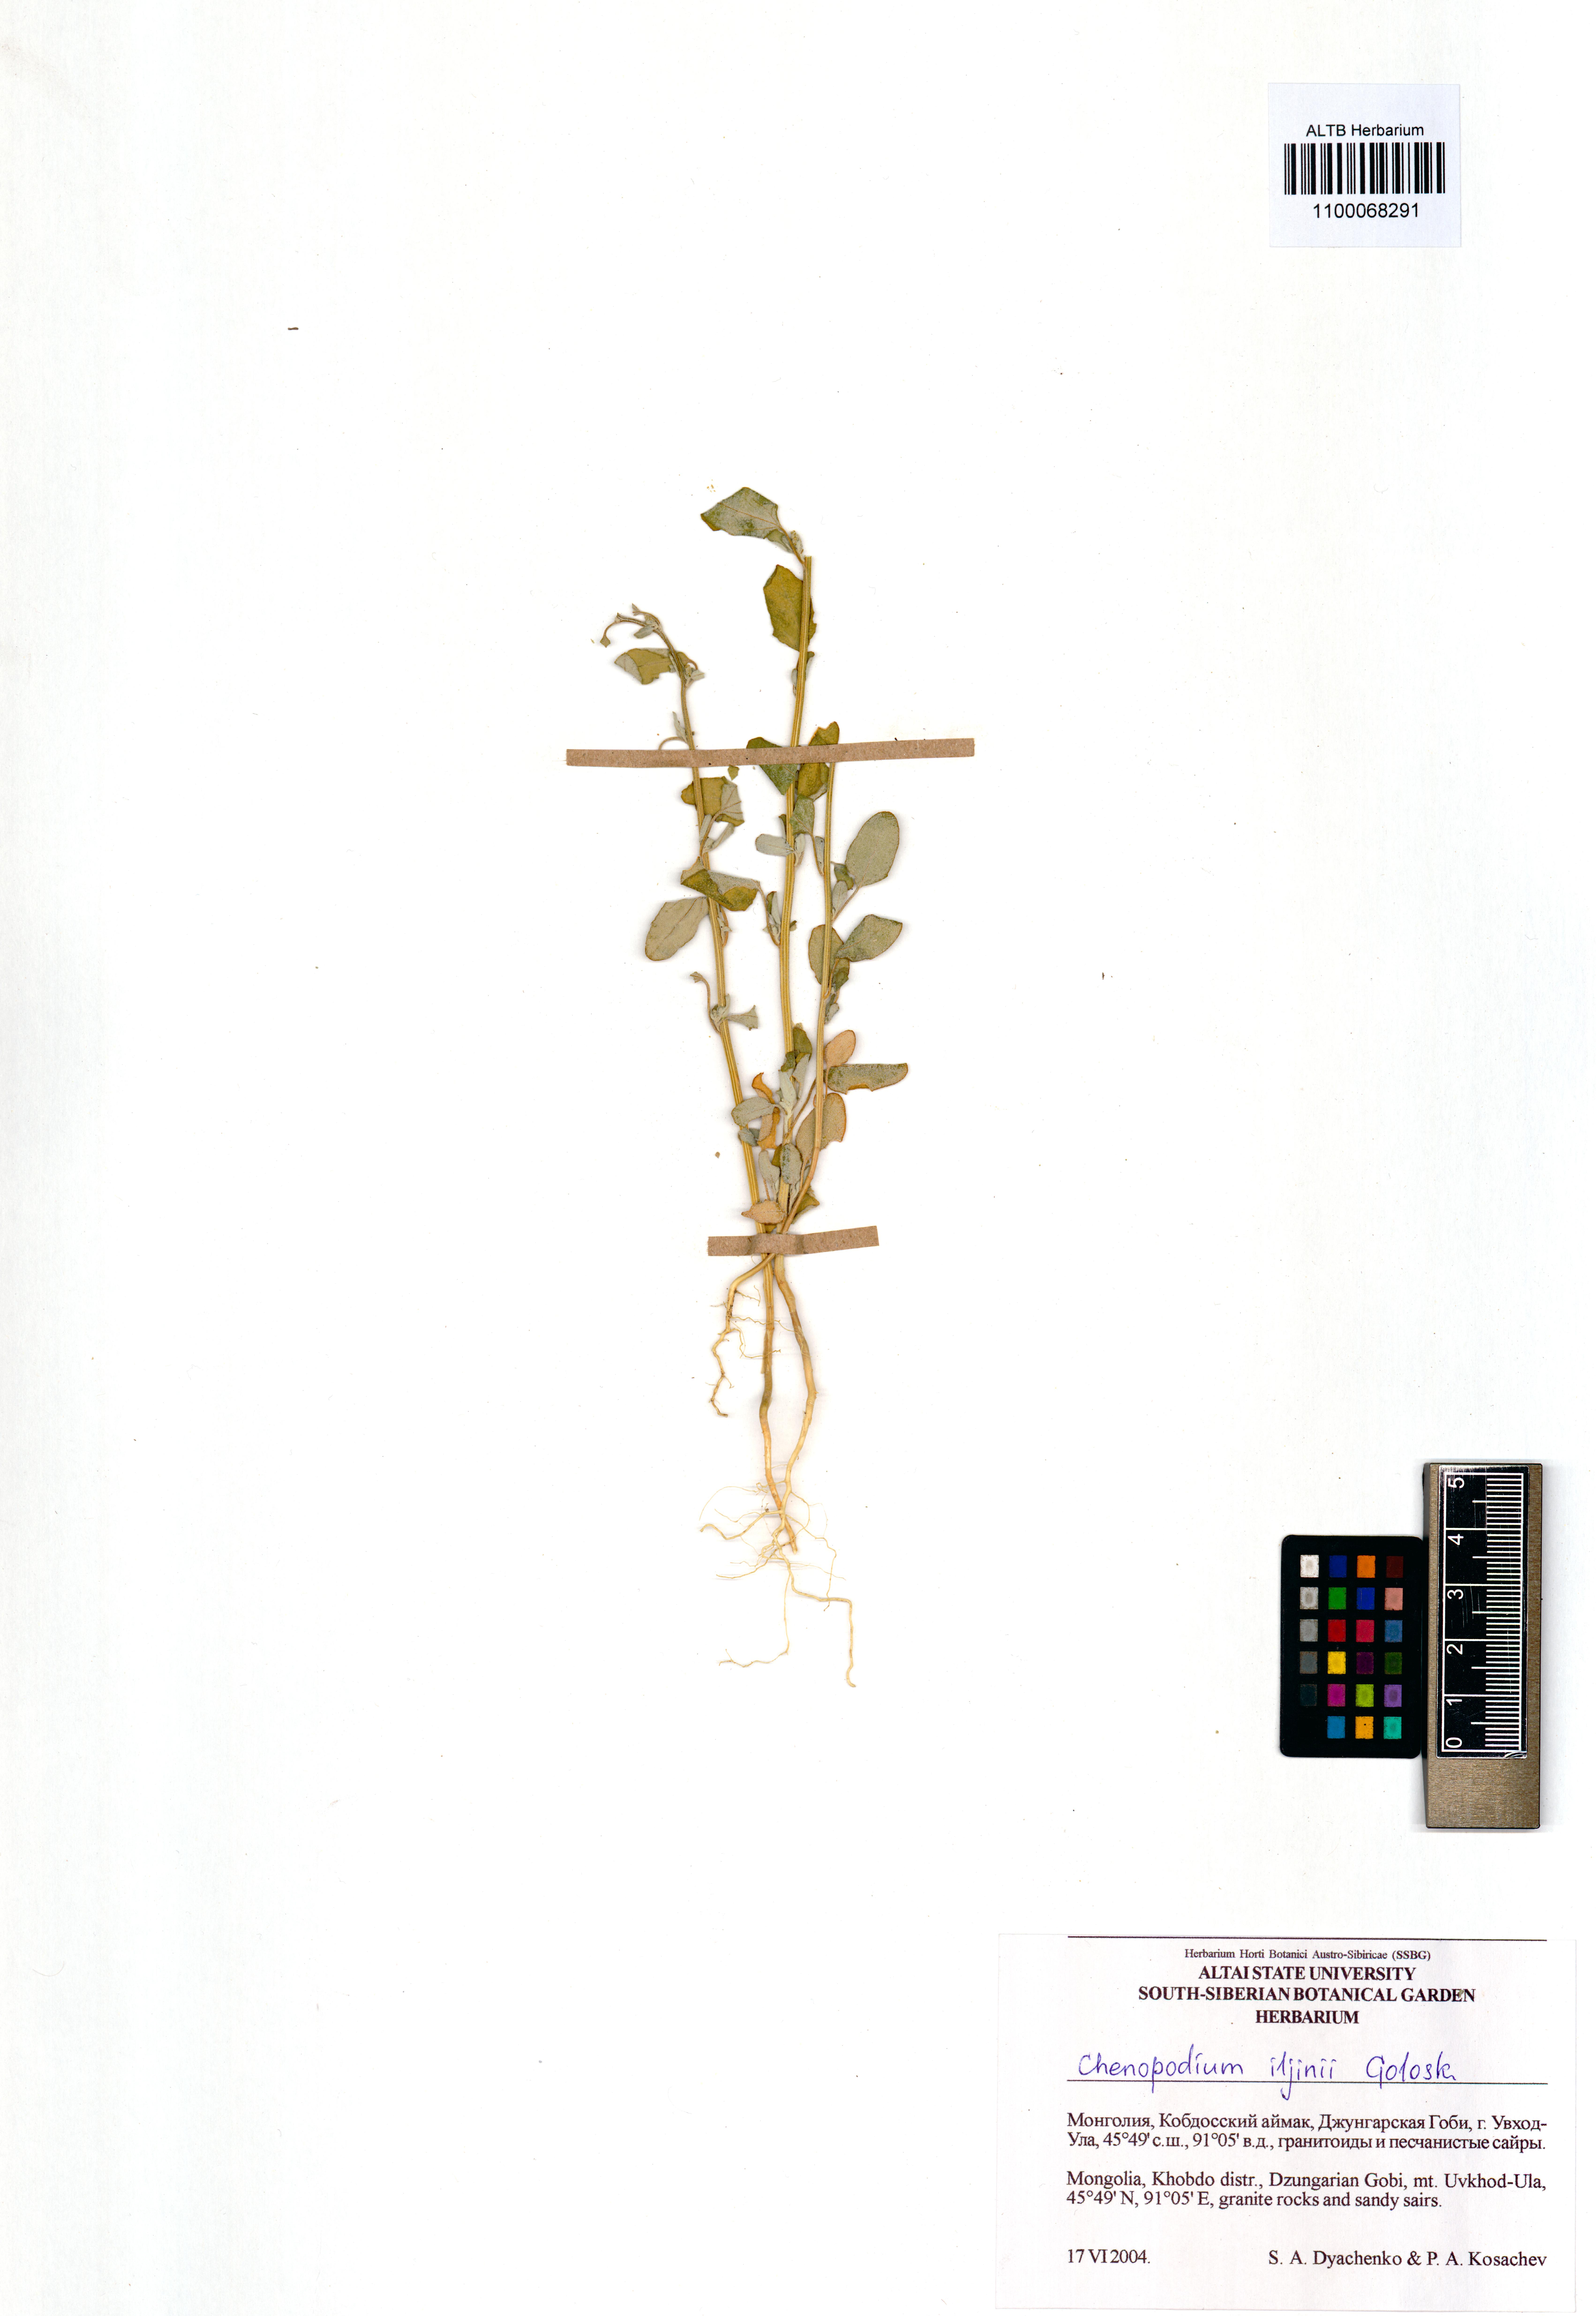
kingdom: Plantae
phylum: Tracheophyta
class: Magnoliopsida
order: Caryophyllales
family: Amaranthaceae
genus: Chenopodium
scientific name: Chenopodium iljinii
